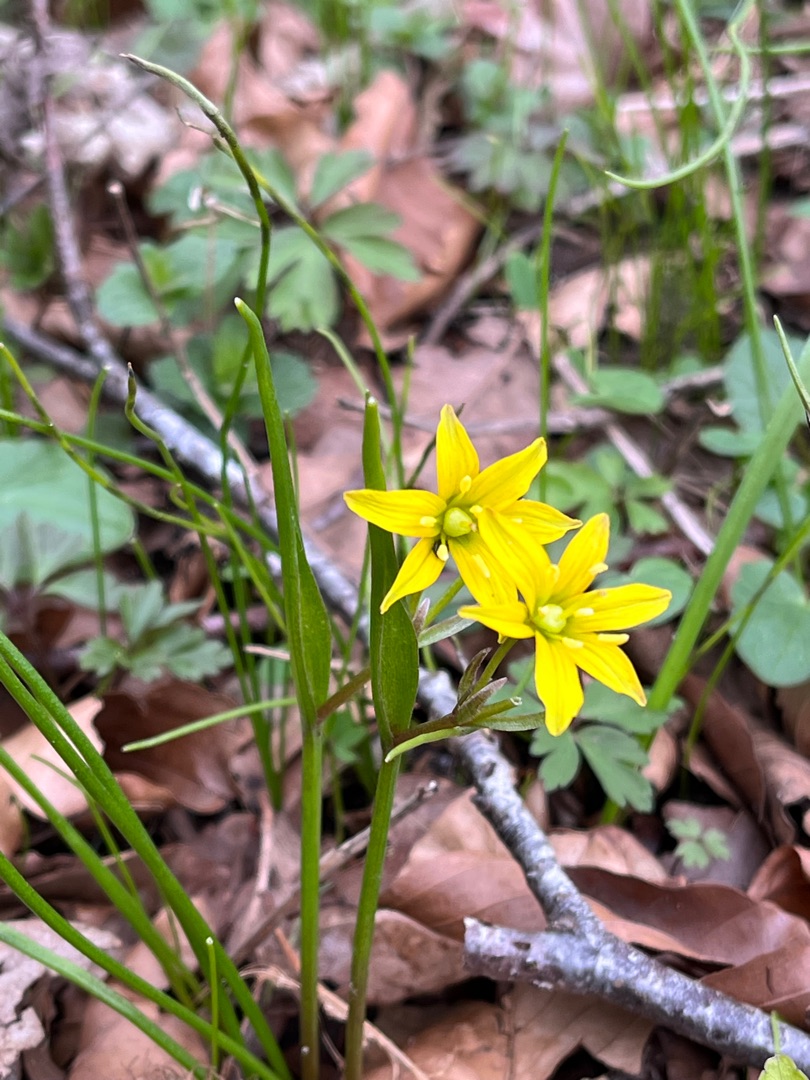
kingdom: Plantae
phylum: Tracheophyta
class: Liliopsida
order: Liliales
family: Liliaceae
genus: Gagea
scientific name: Gagea spathacea
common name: Hylster-guldstjerne
